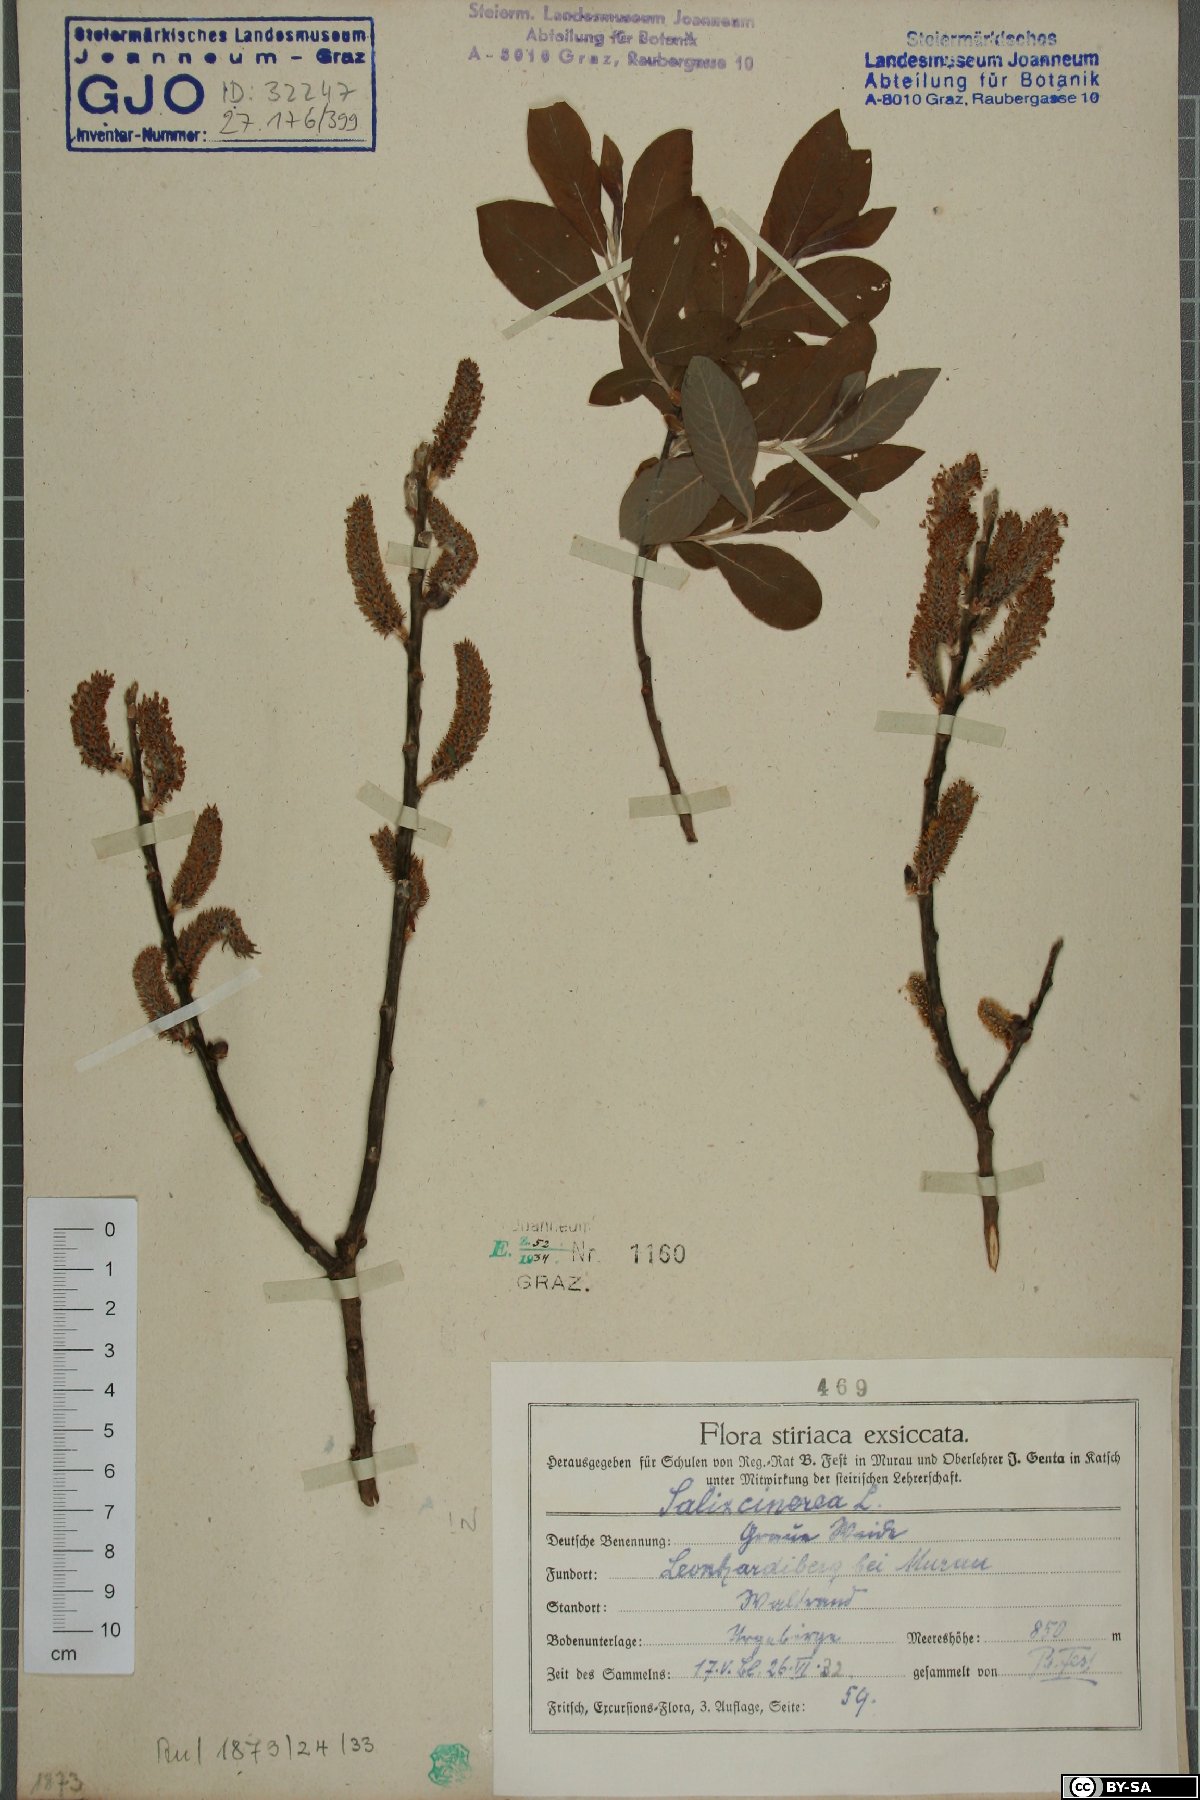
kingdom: Plantae
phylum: Tracheophyta
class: Magnoliopsida
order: Malpighiales
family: Salicaceae
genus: Salix
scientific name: Salix cinerea
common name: Common sallow
